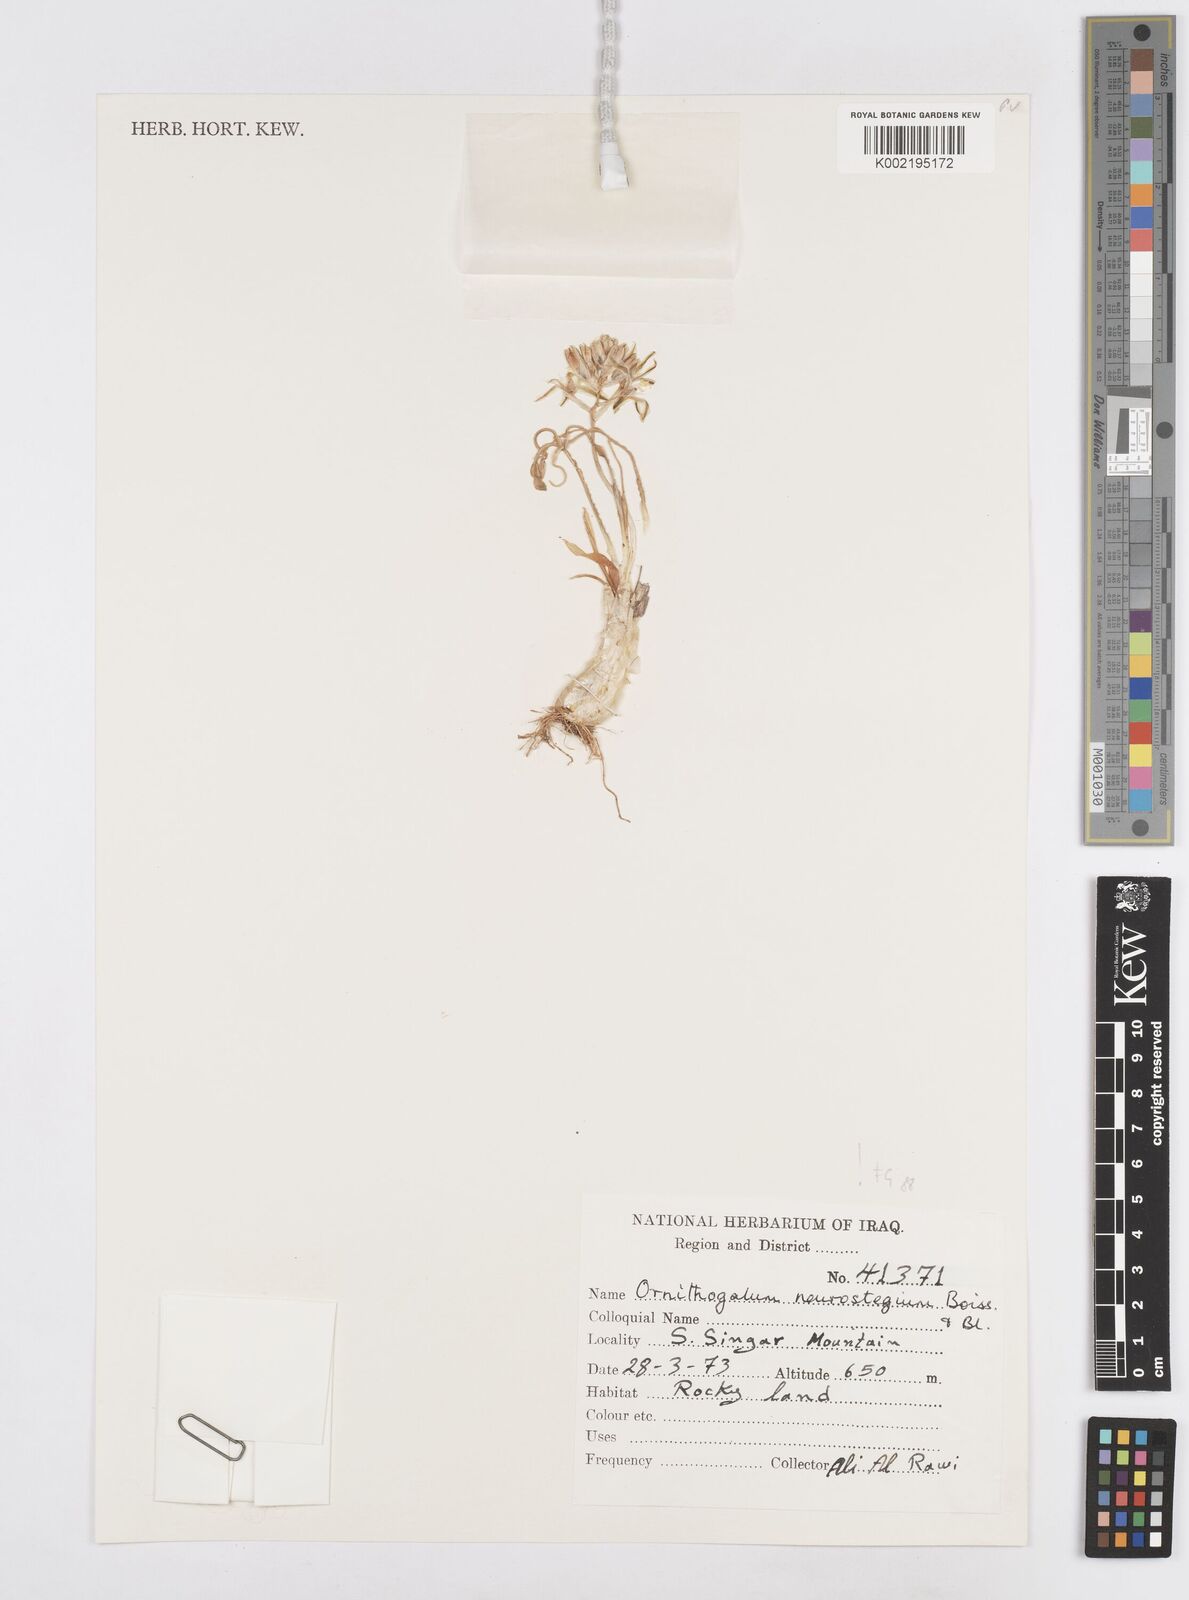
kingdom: Plantae
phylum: Tracheophyta
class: Liliopsida
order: Asparagales
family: Asparagaceae
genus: Ornithogalum
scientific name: Ornithogalum neurostegium
